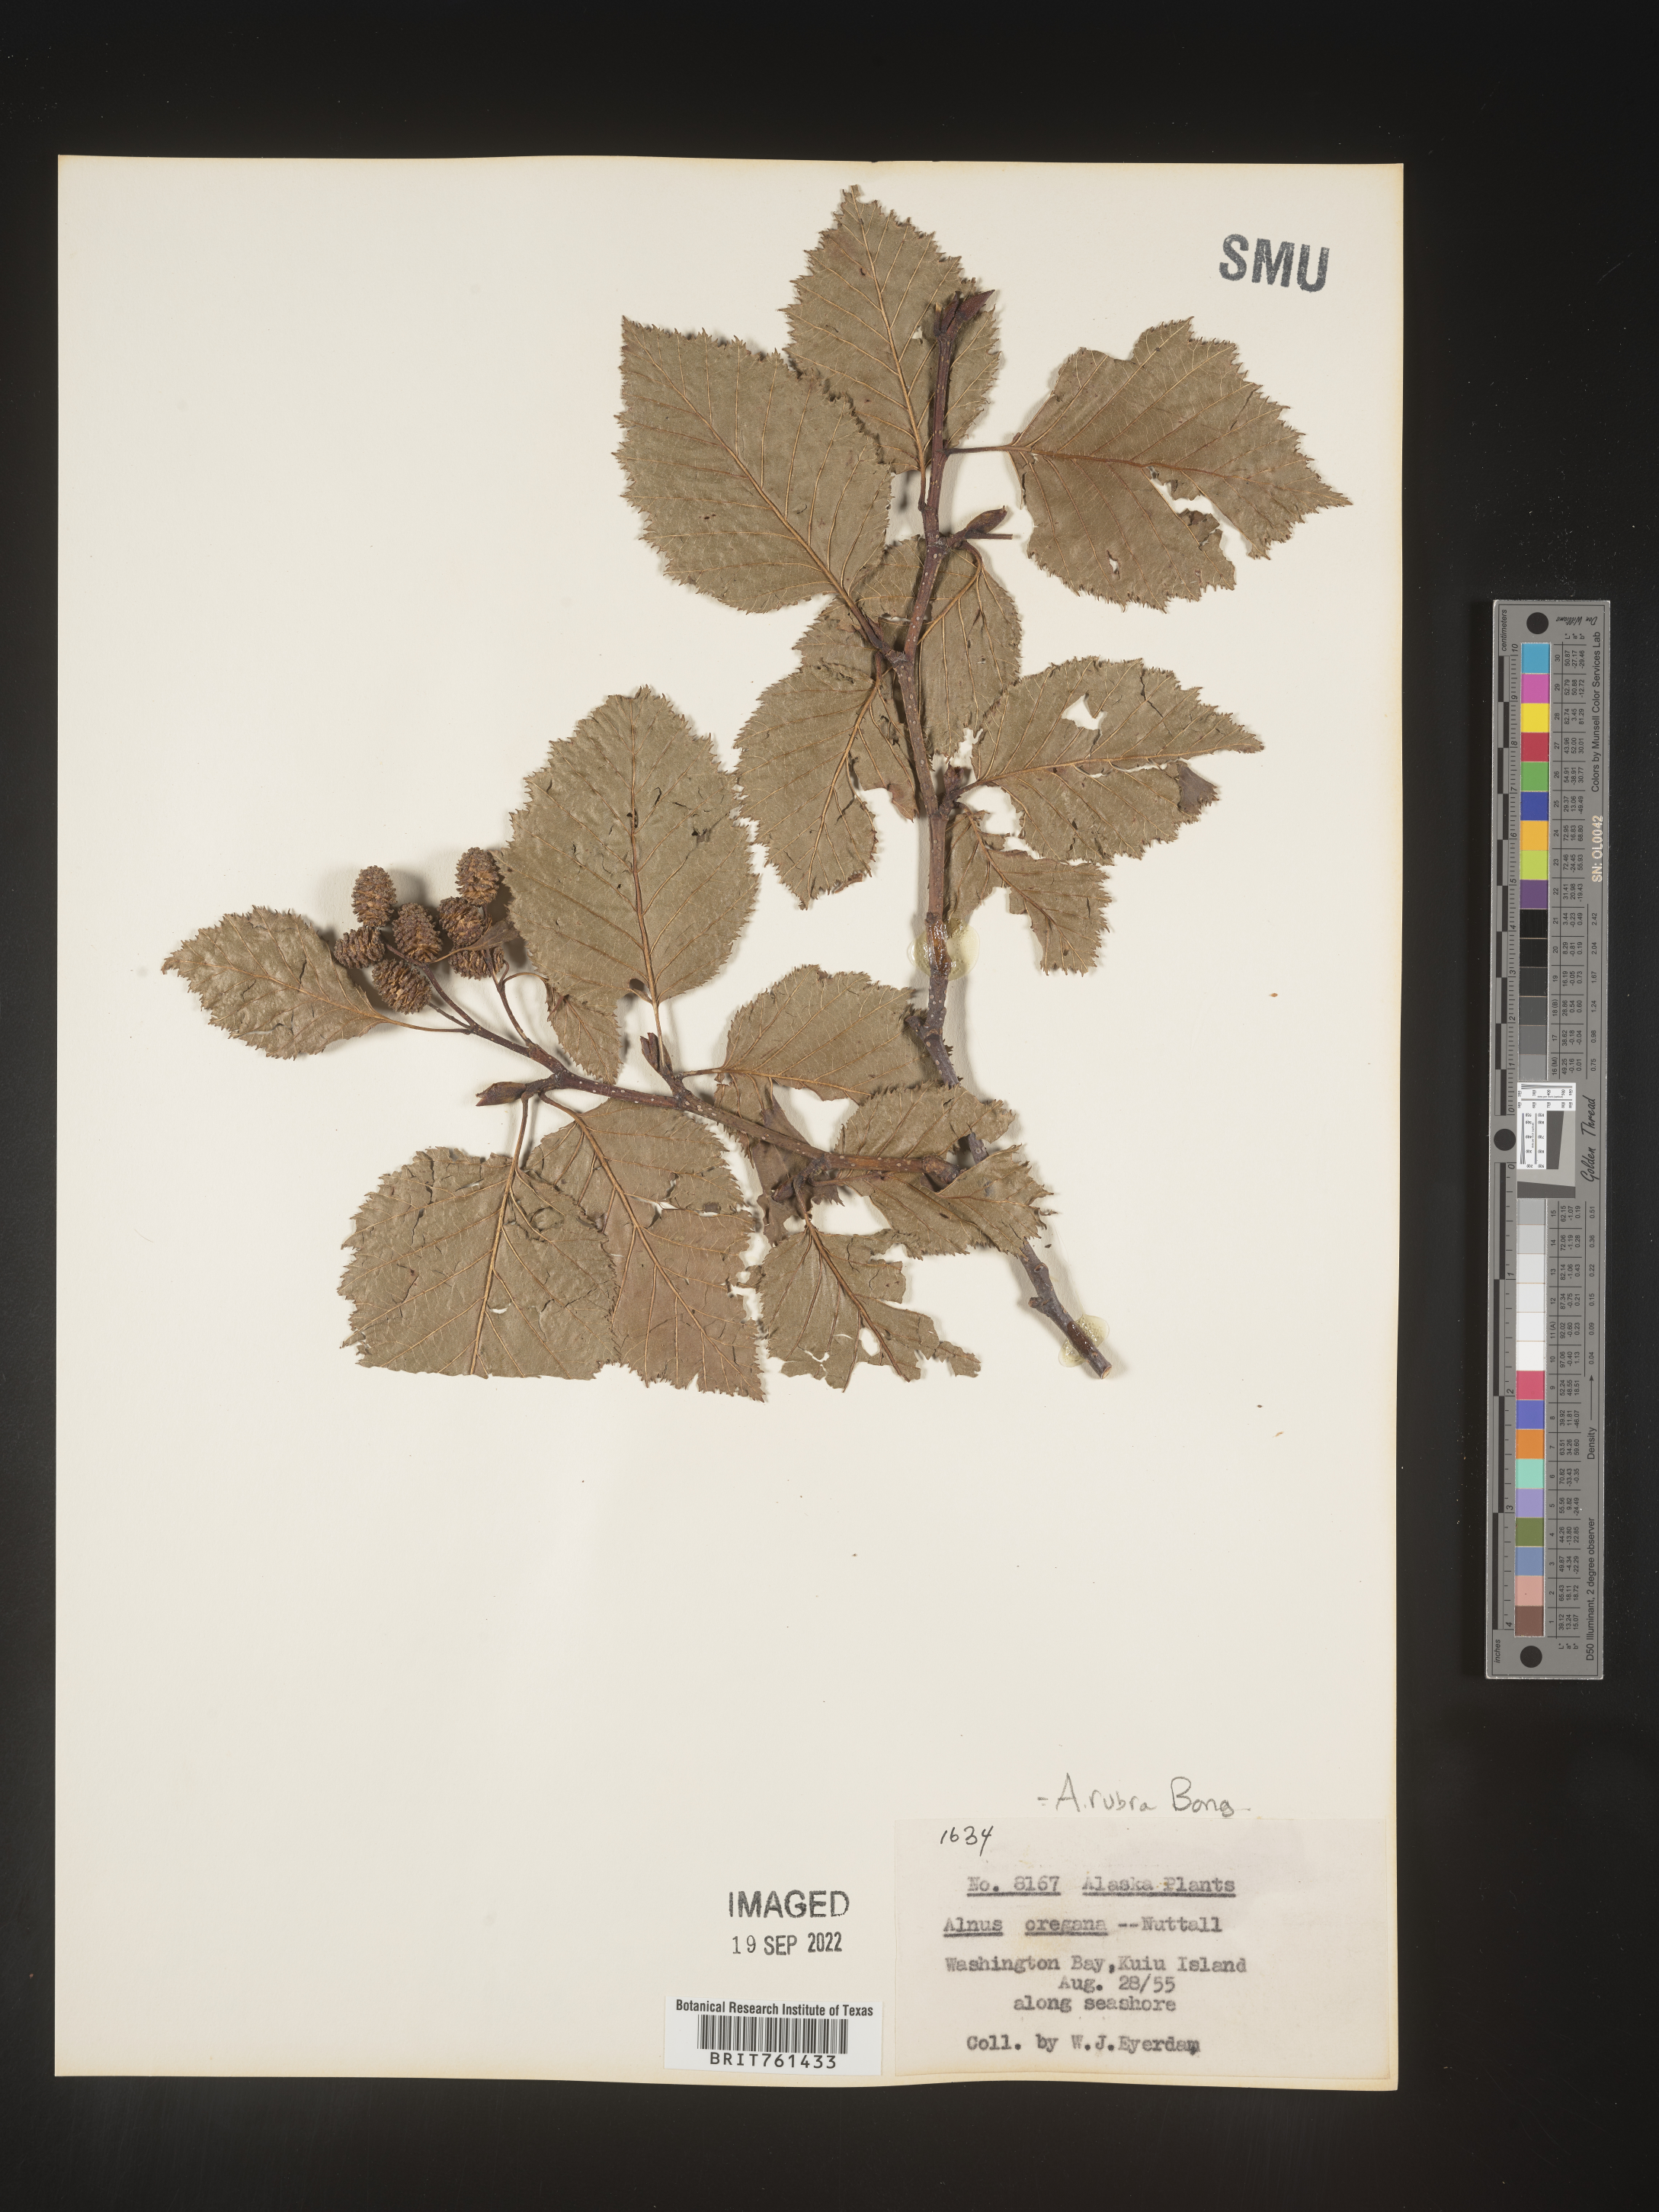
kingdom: Plantae
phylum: Tracheophyta
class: Magnoliopsida
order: Fagales
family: Betulaceae
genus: Alnus
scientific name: Alnus rubra
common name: Red alder
